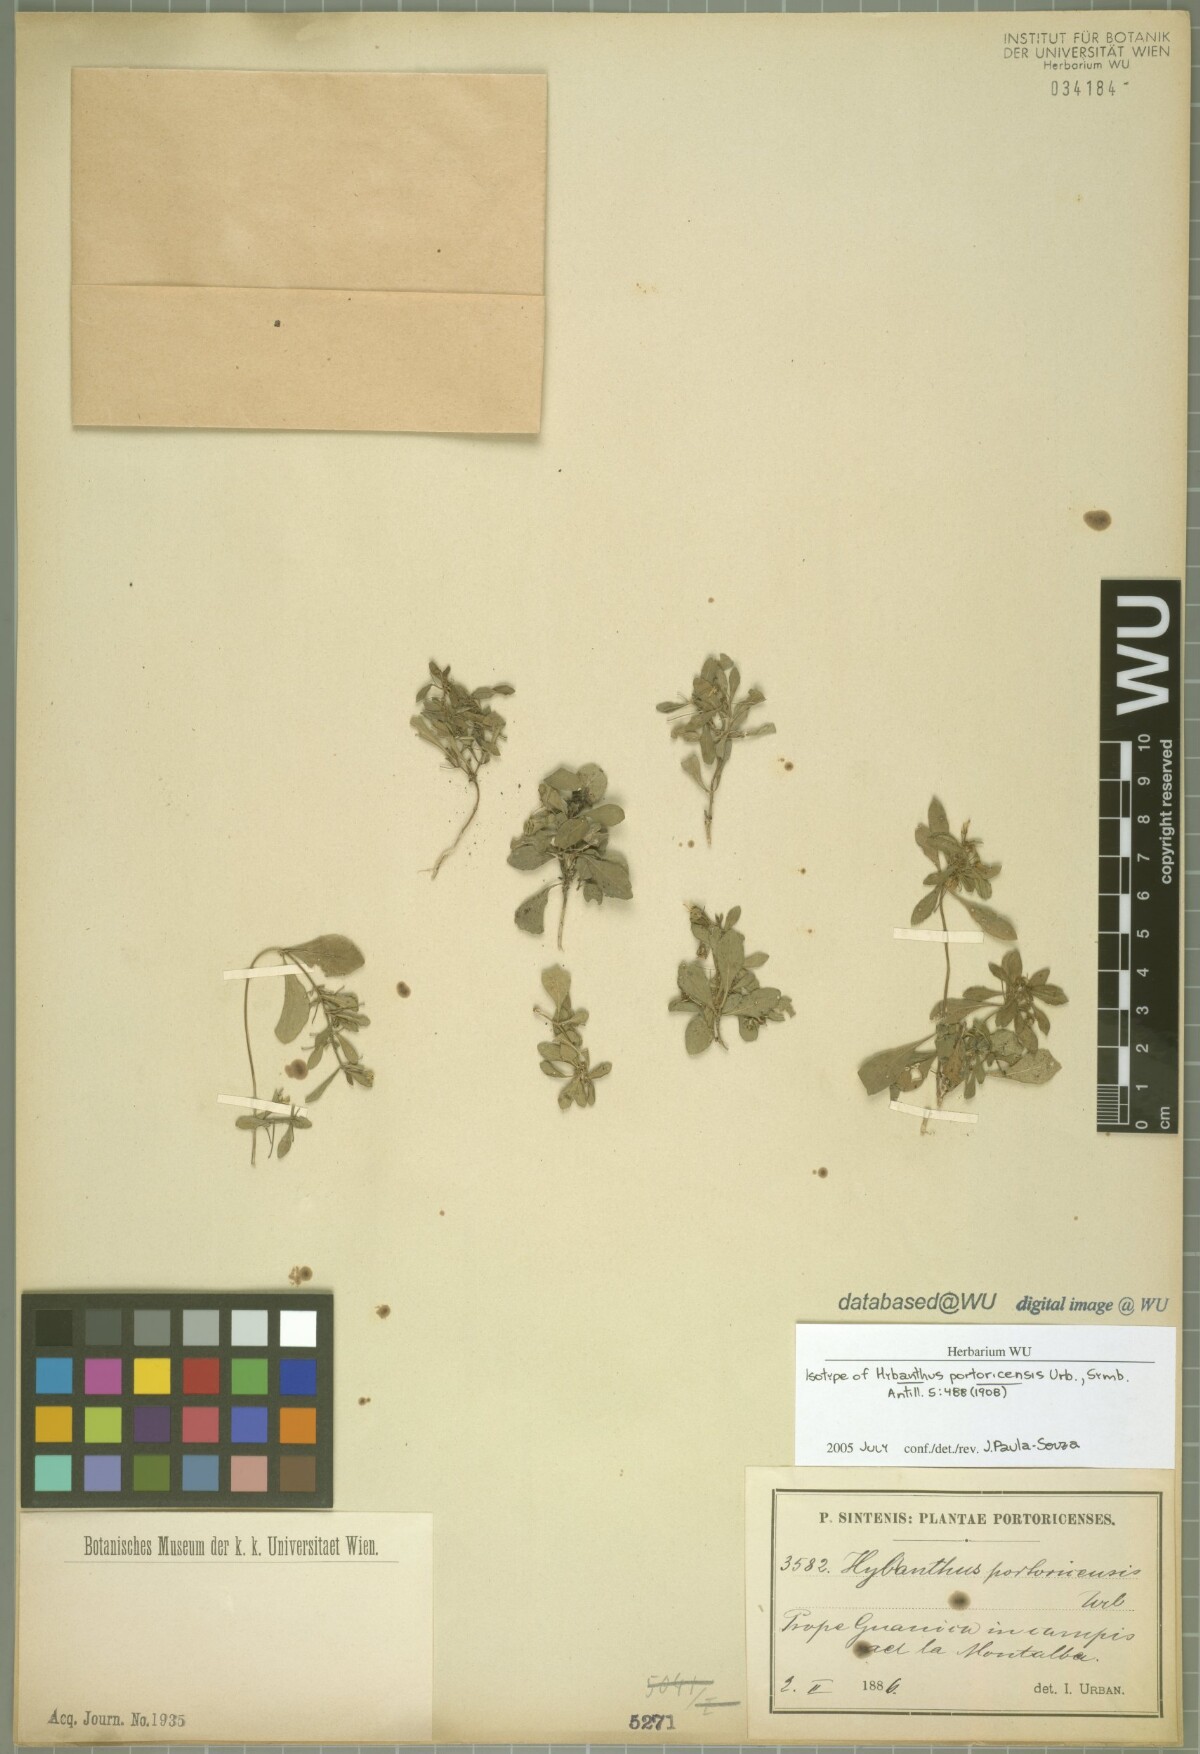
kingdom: Plantae
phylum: Tracheophyta
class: Magnoliopsida
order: Malpighiales
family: Violaceae
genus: Pombalia
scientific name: Pombalia linearifolia
